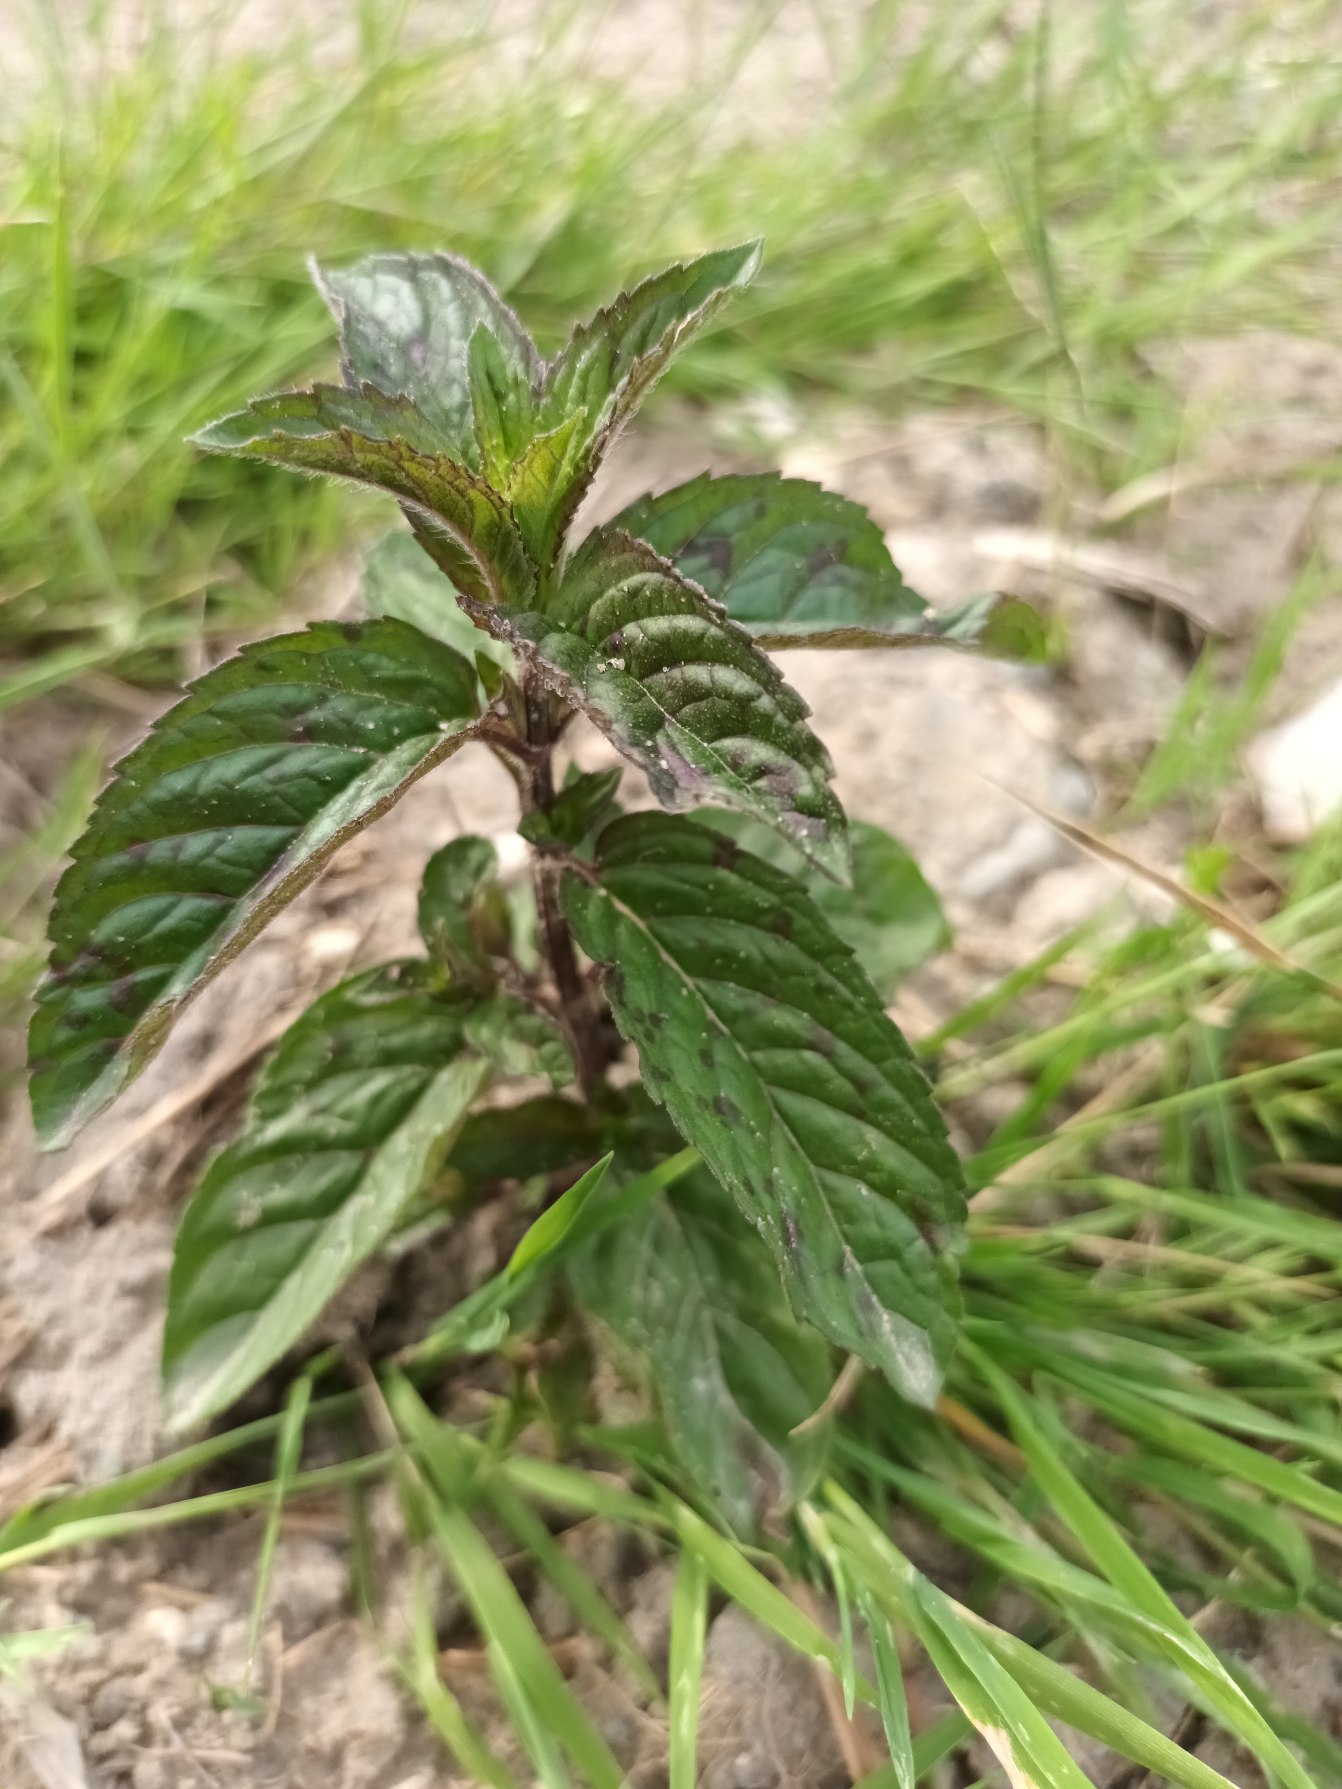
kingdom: Plantae
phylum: Tracheophyta
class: Magnoliopsida
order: Lamiales
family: Lamiaceae
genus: Mentha
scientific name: Mentha piperita
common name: Peber-mynte
